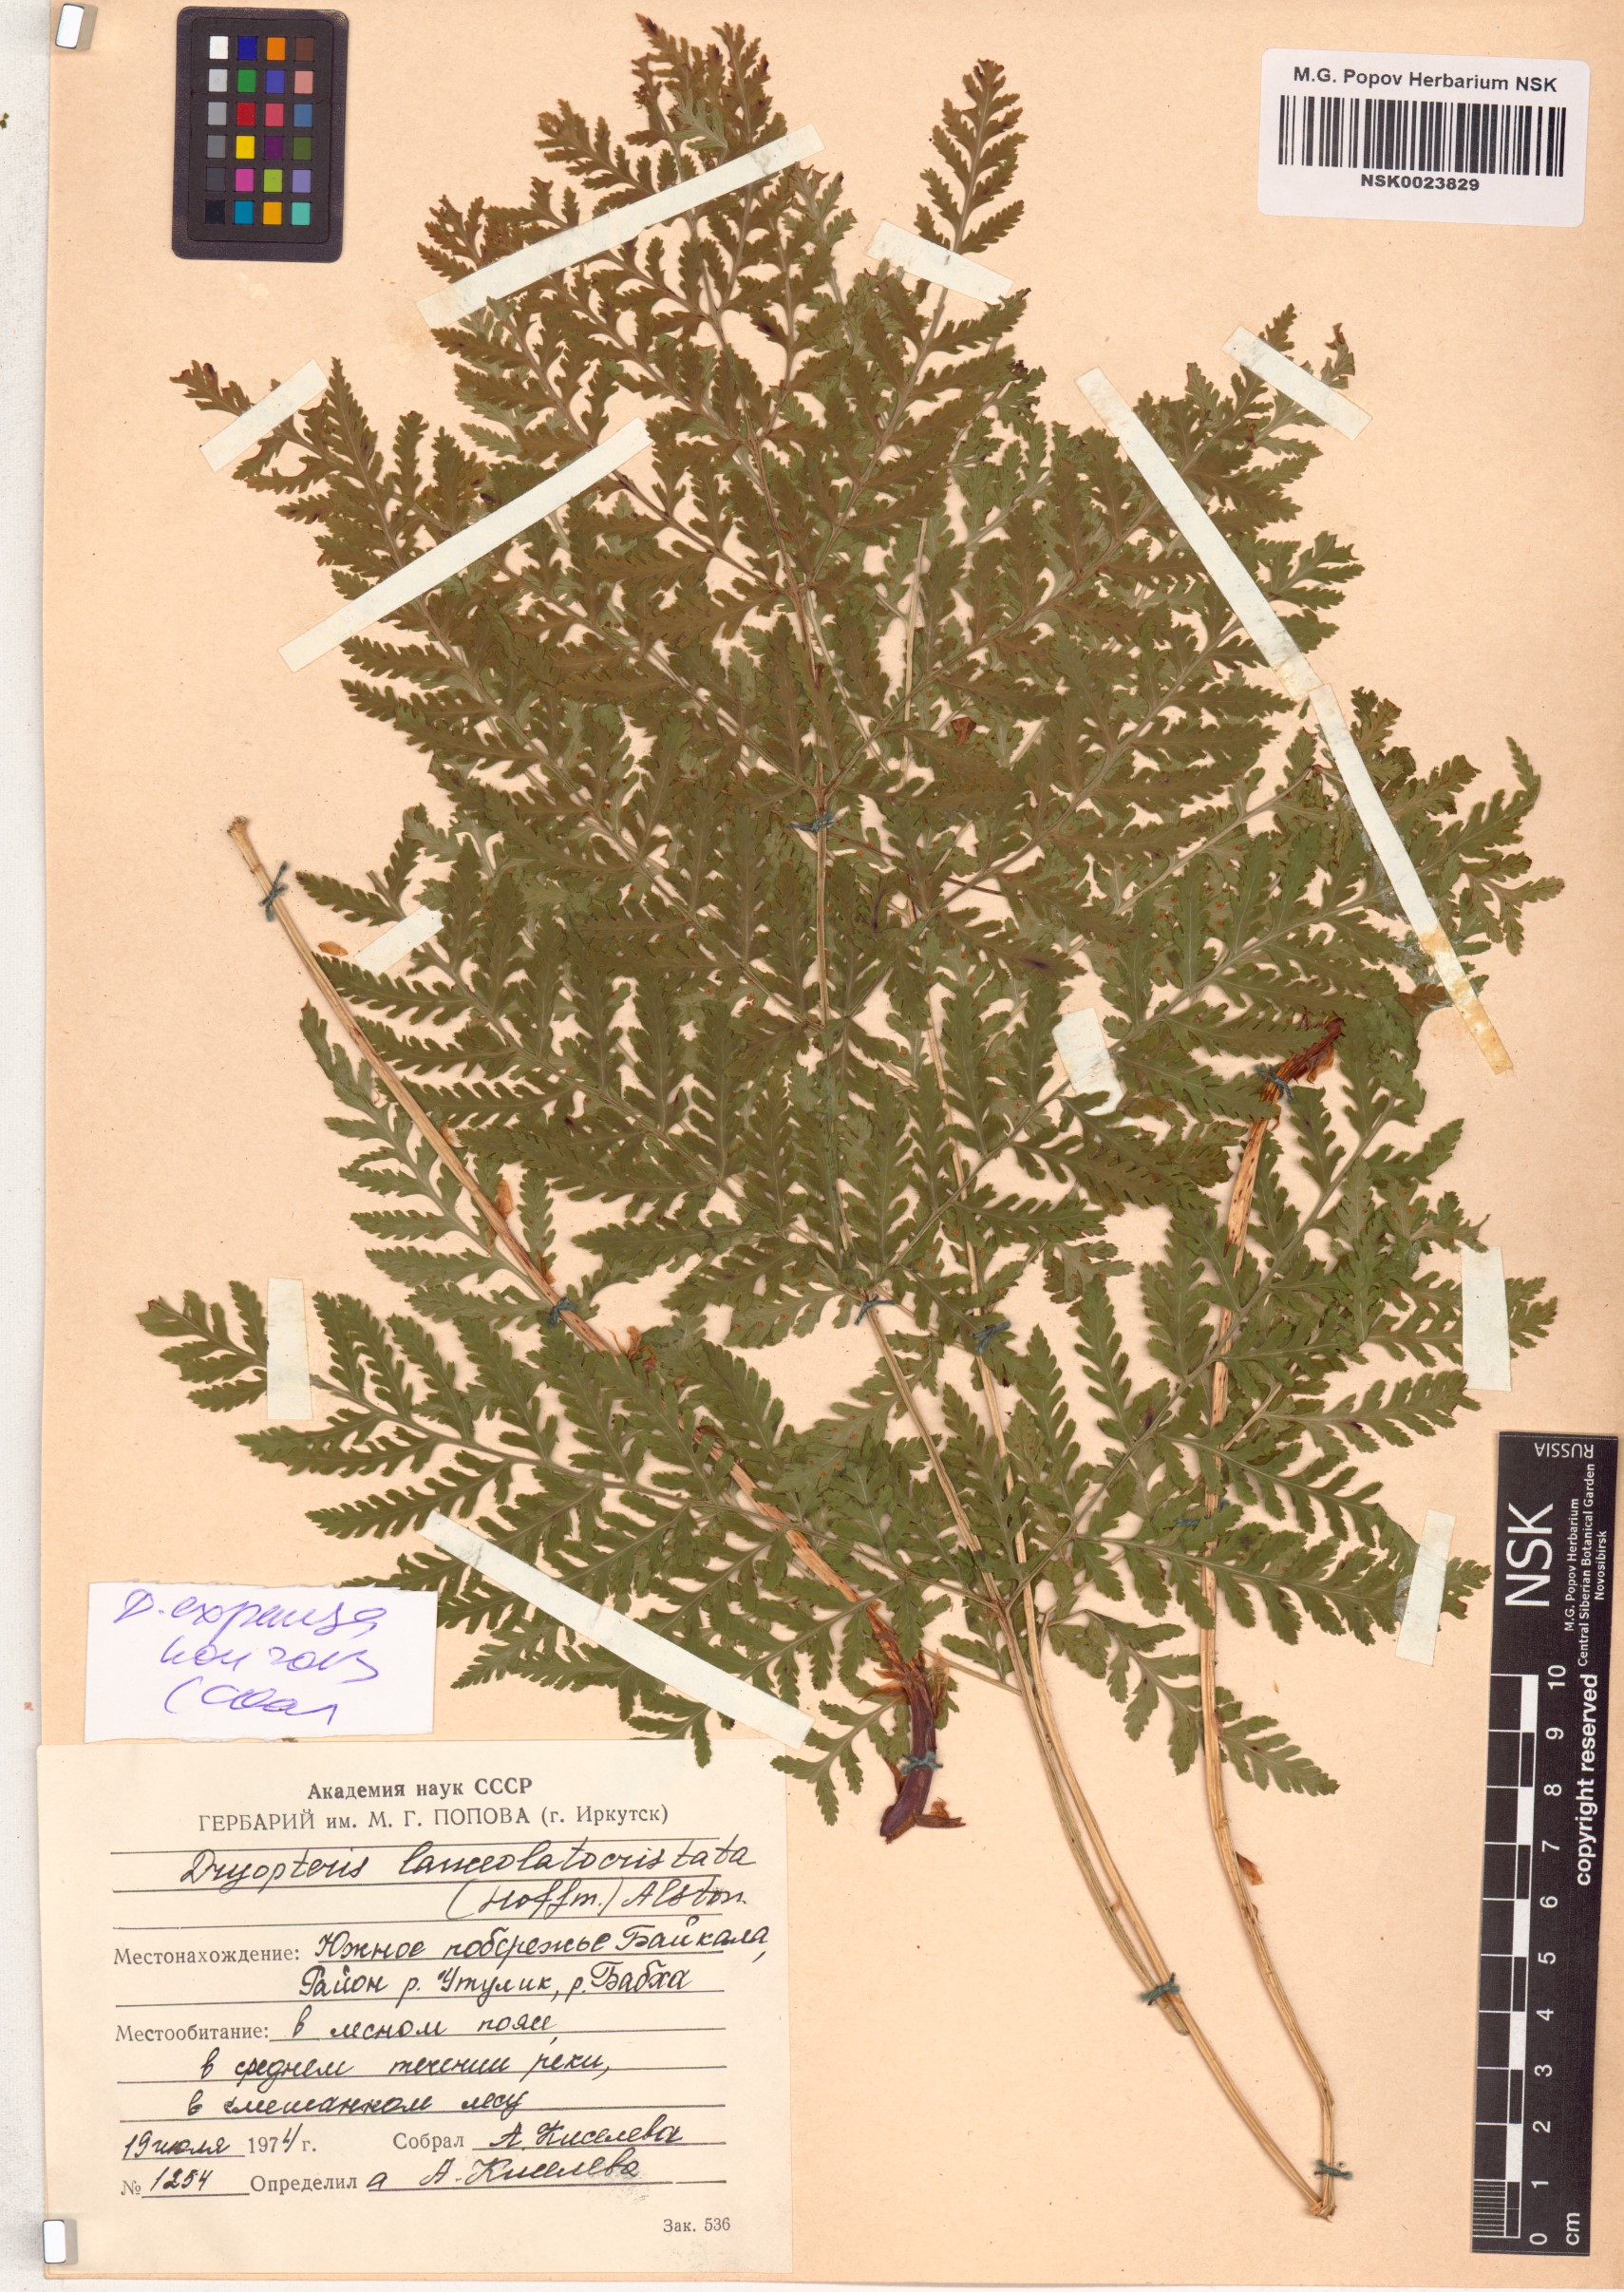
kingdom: Plantae
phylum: Tracheophyta
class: Polypodiopsida
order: Polypodiales
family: Dryopteridaceae
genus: Dryopteris
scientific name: Dryopteris expansa
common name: Northern buckler fern
